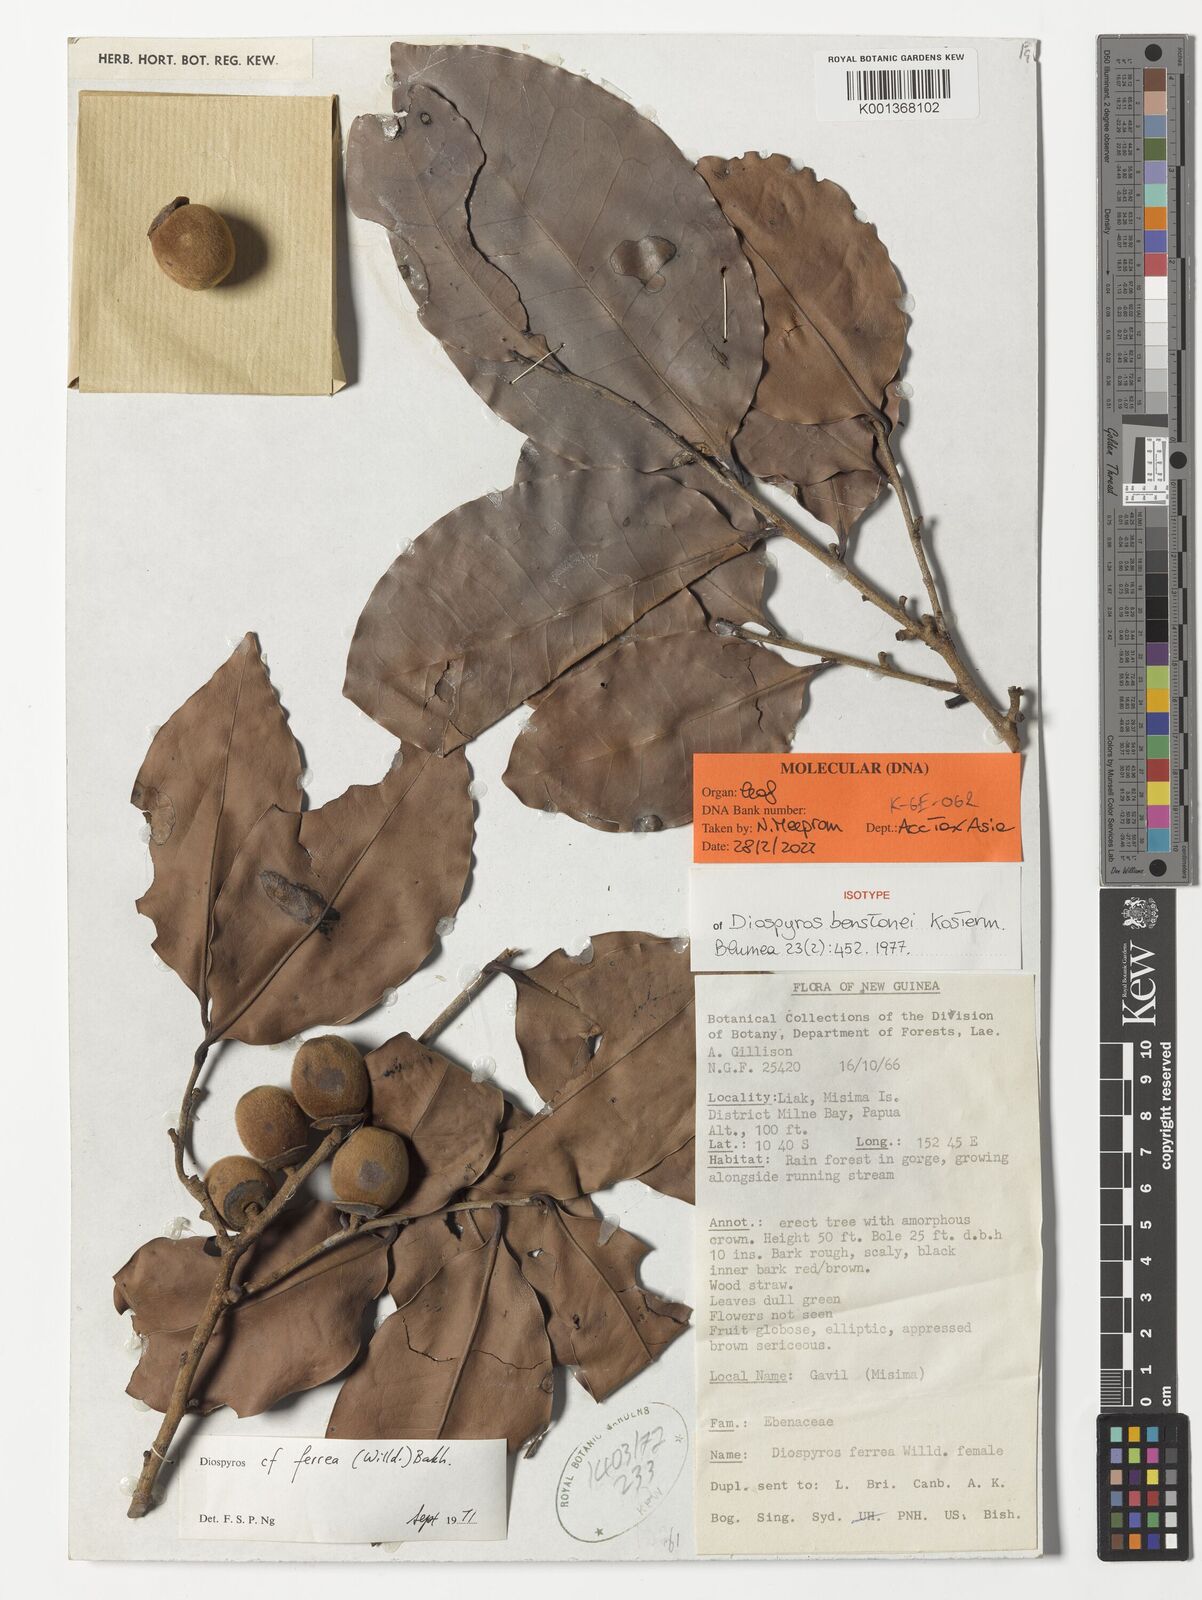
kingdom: Plantae
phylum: Tracheophyta
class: Magnoliopsida
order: Ericales
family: Ebenaceae
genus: Diospyros
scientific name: Diospyros benstonei
